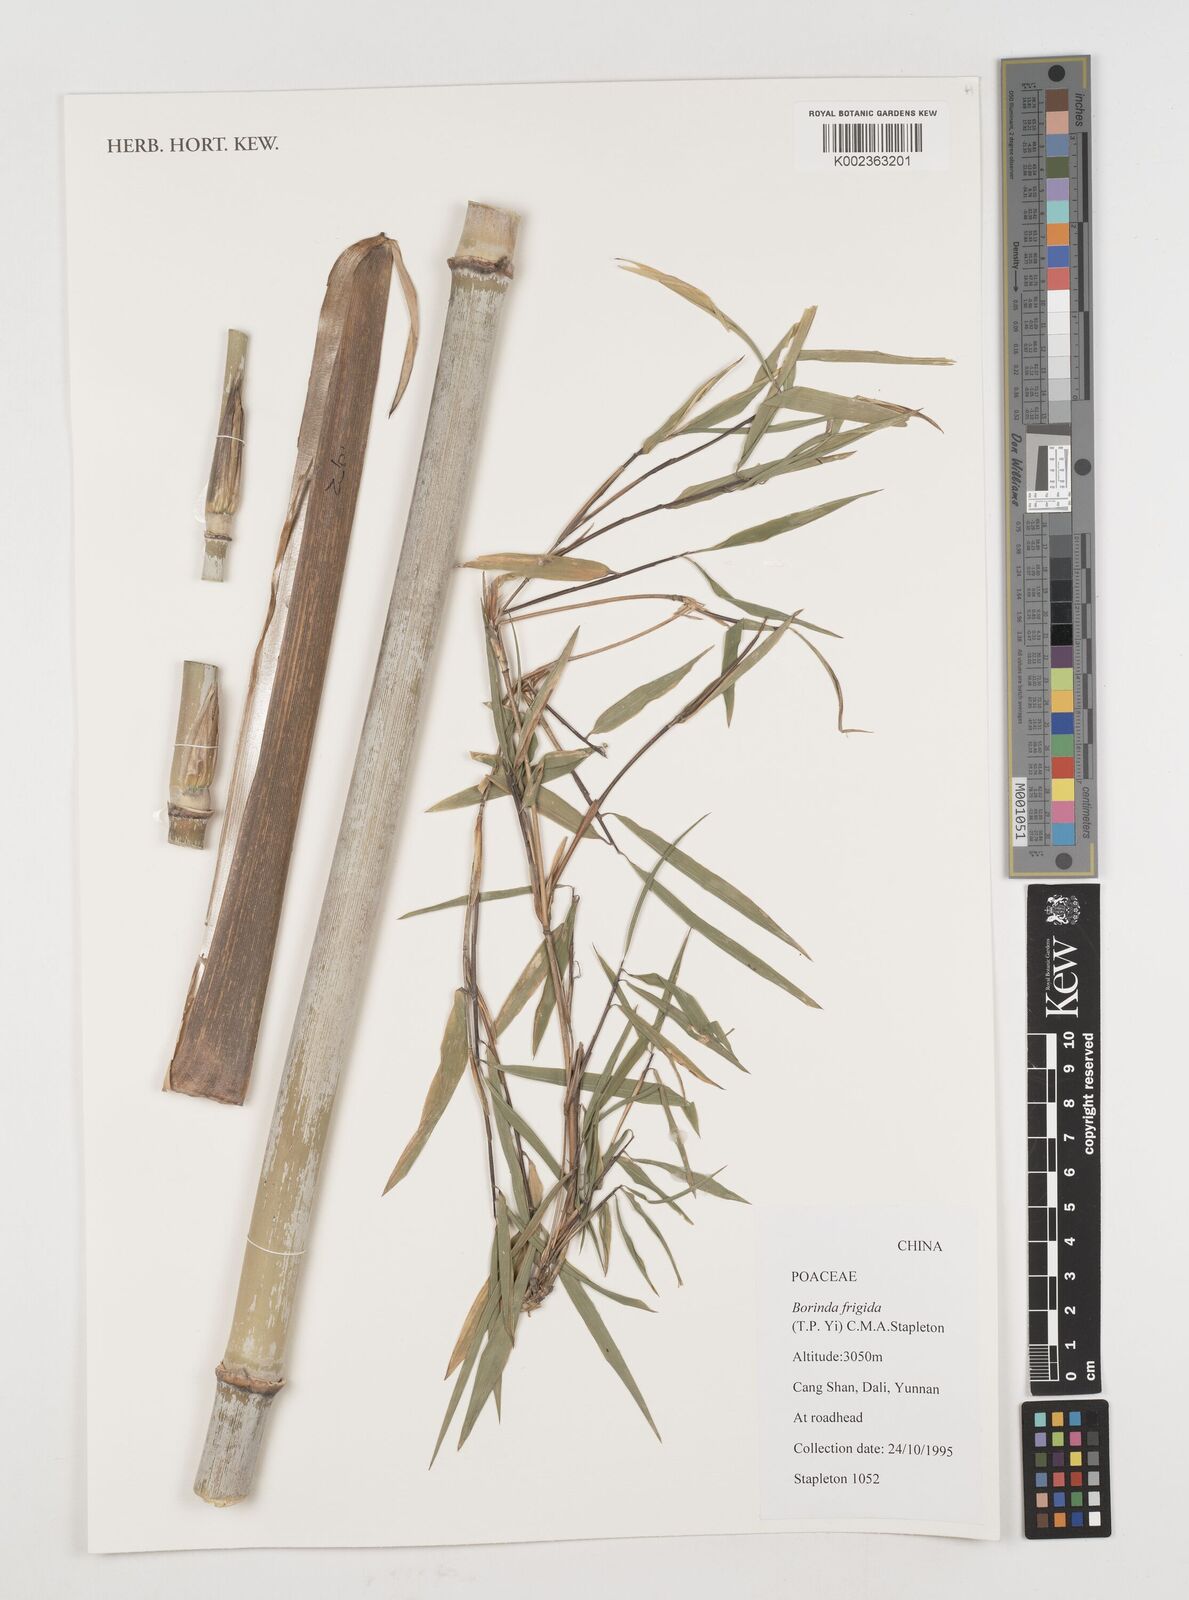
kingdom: Plantae
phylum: Tracheophyta
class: Liliopsida
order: Poales
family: Poaceae
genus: Fargesia
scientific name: Fargesia
